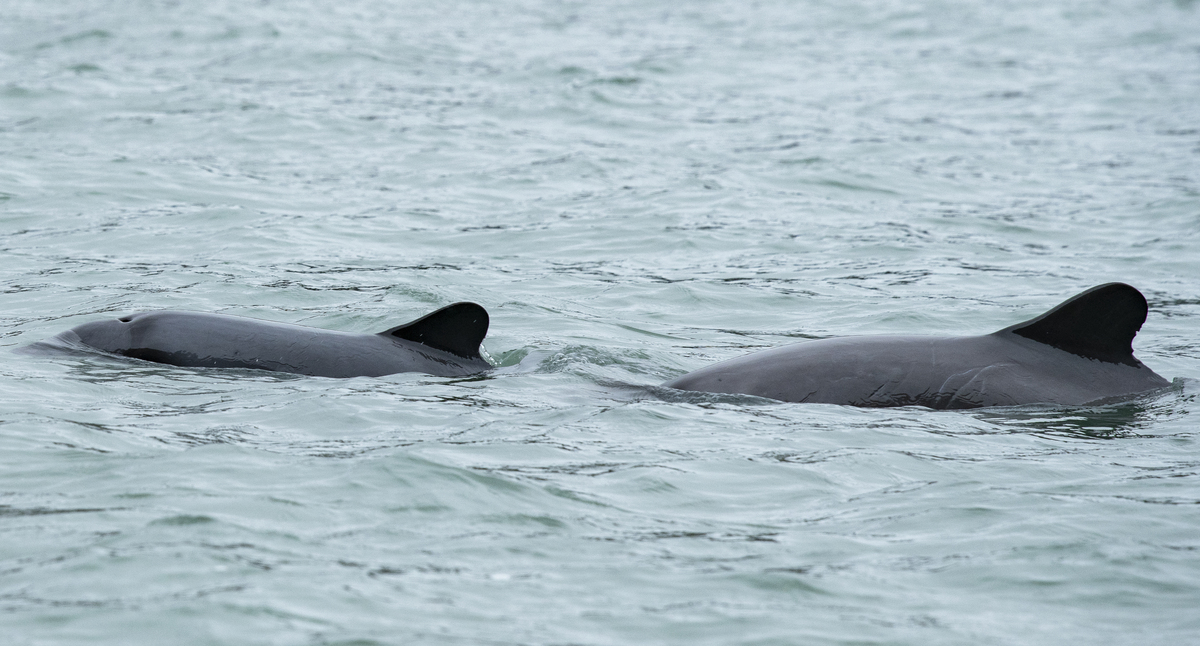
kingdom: Animalia
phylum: Chordata
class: Mammalia
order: Cetacea
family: Delphinidae
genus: Cephalorhynchus
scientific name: Cephalorhynchus eutropia
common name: Black dolphin
